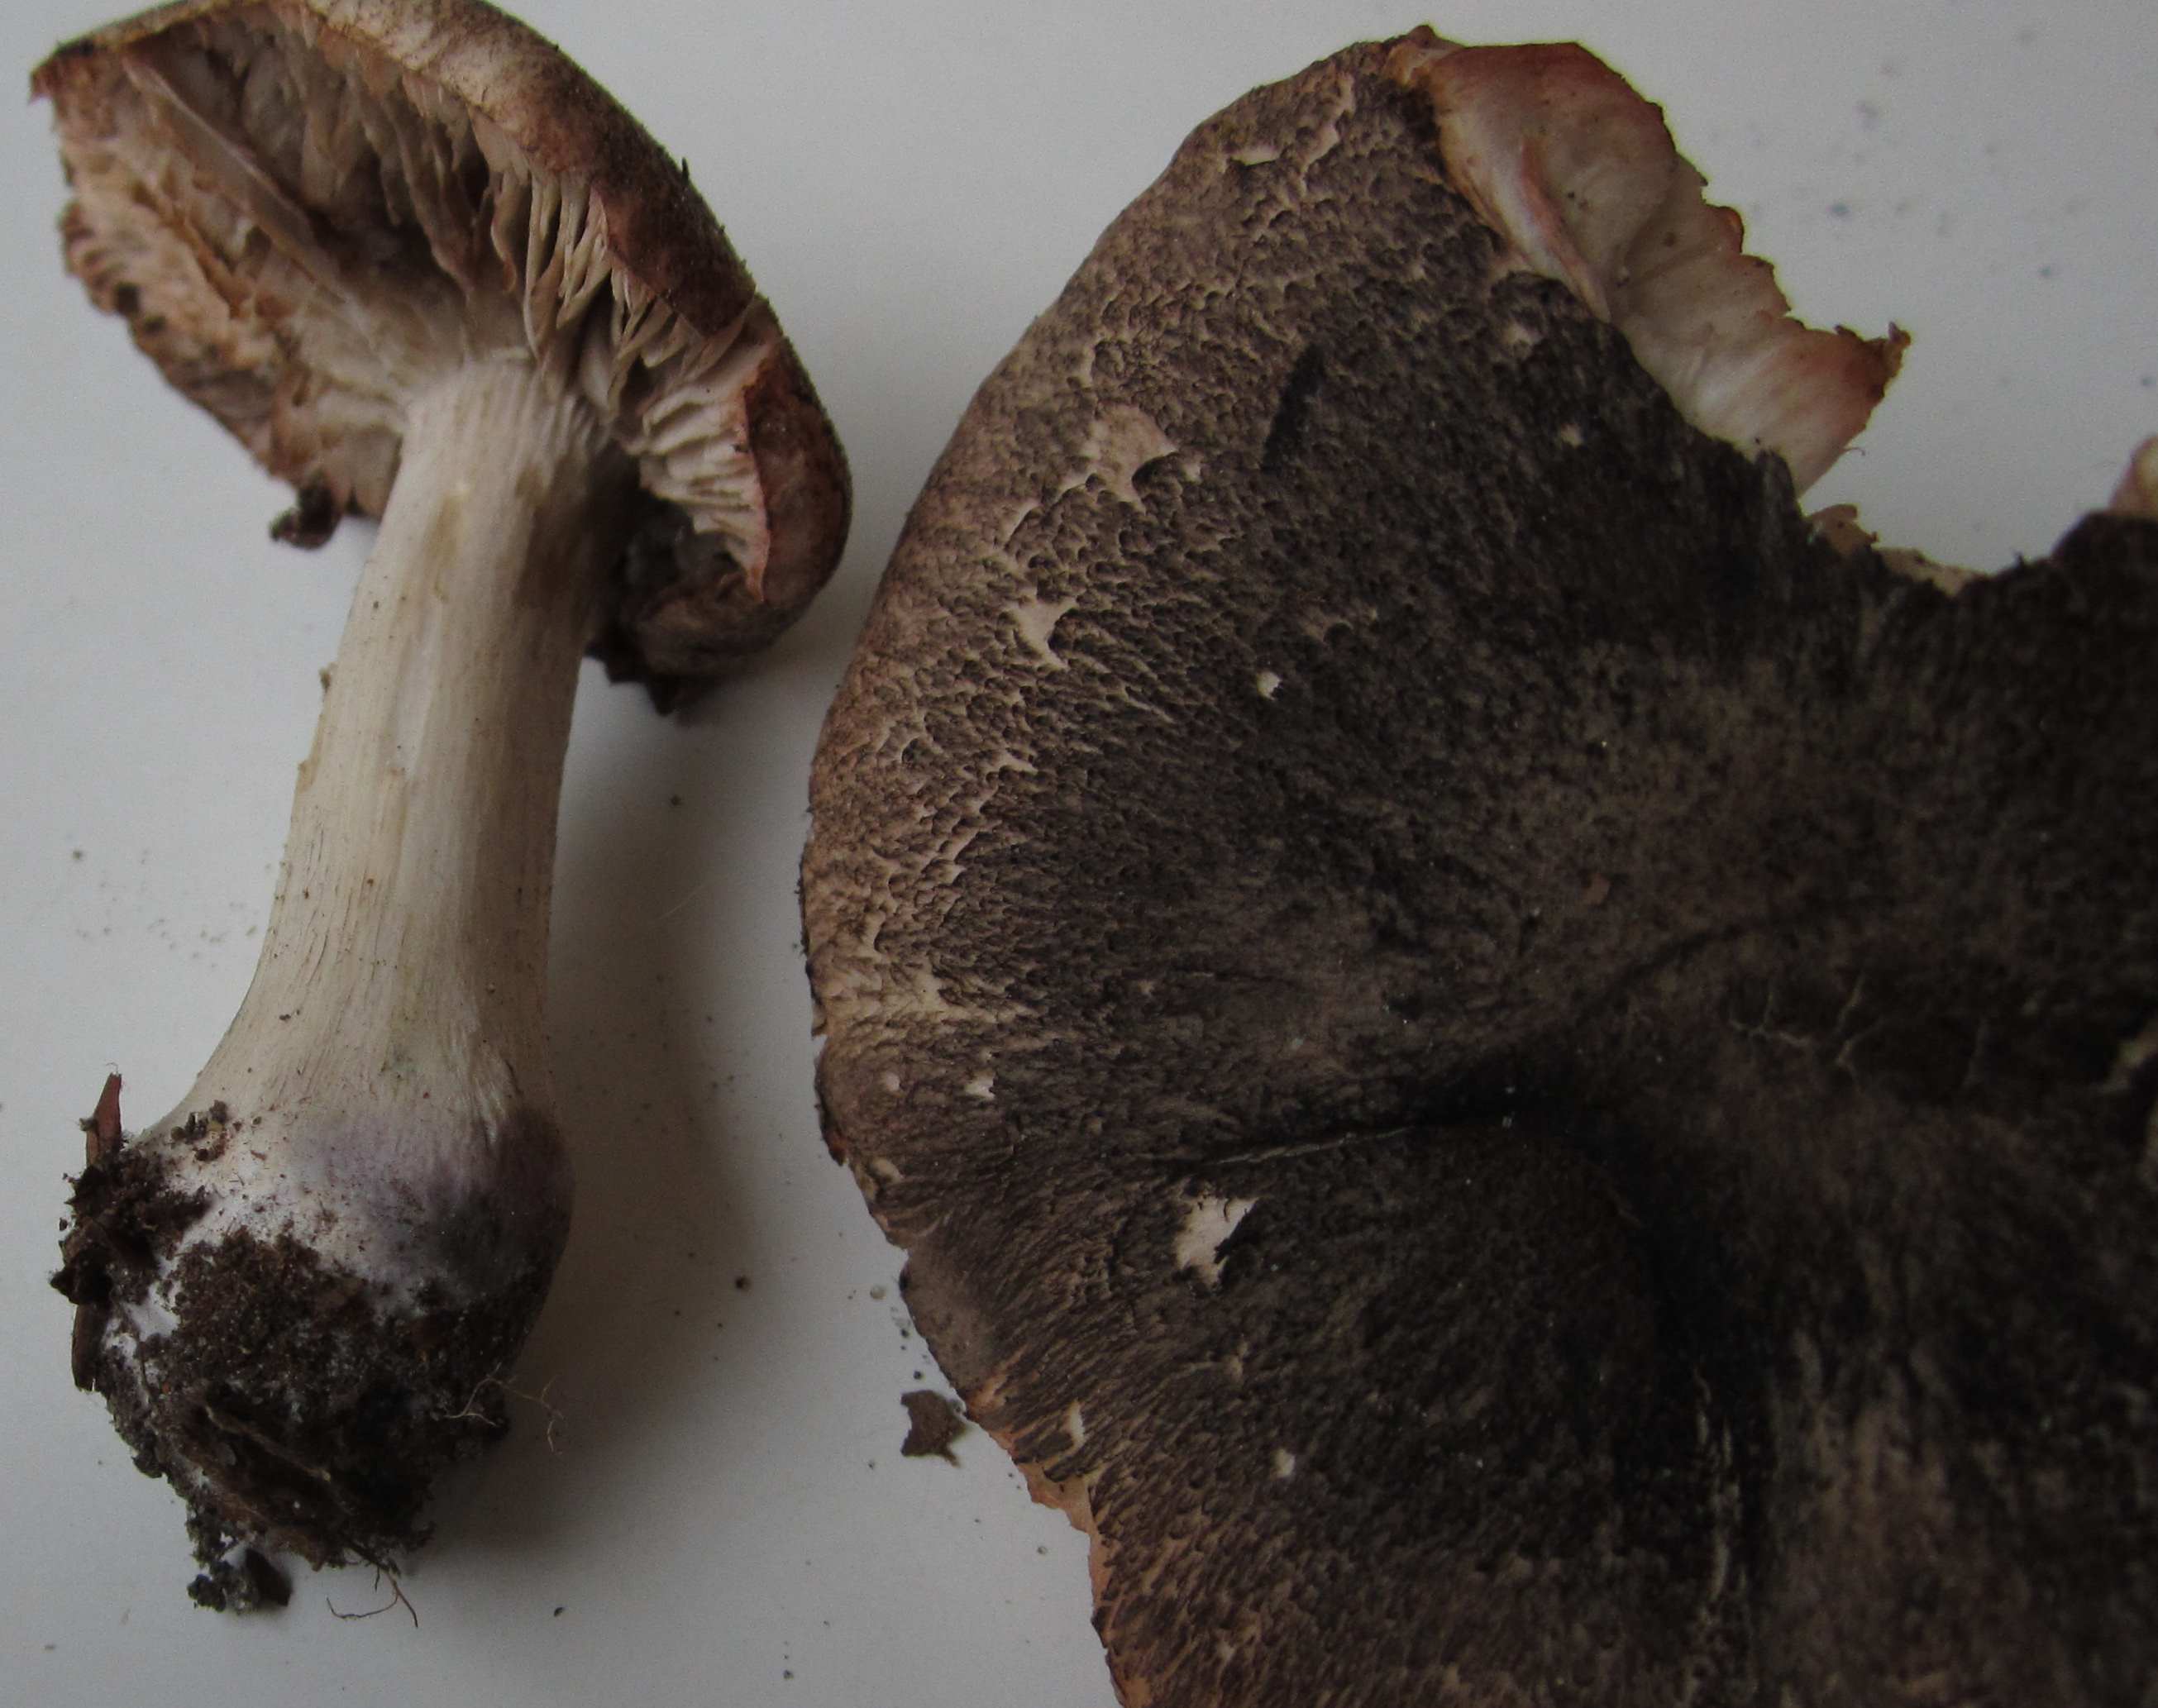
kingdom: Fungi
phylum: Basidiomycota
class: Agaricomycetes
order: Agaricales
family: Tricholomataceae
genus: Tricholoma
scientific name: Tricholoma orirubens
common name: rødbladet ridderhat
